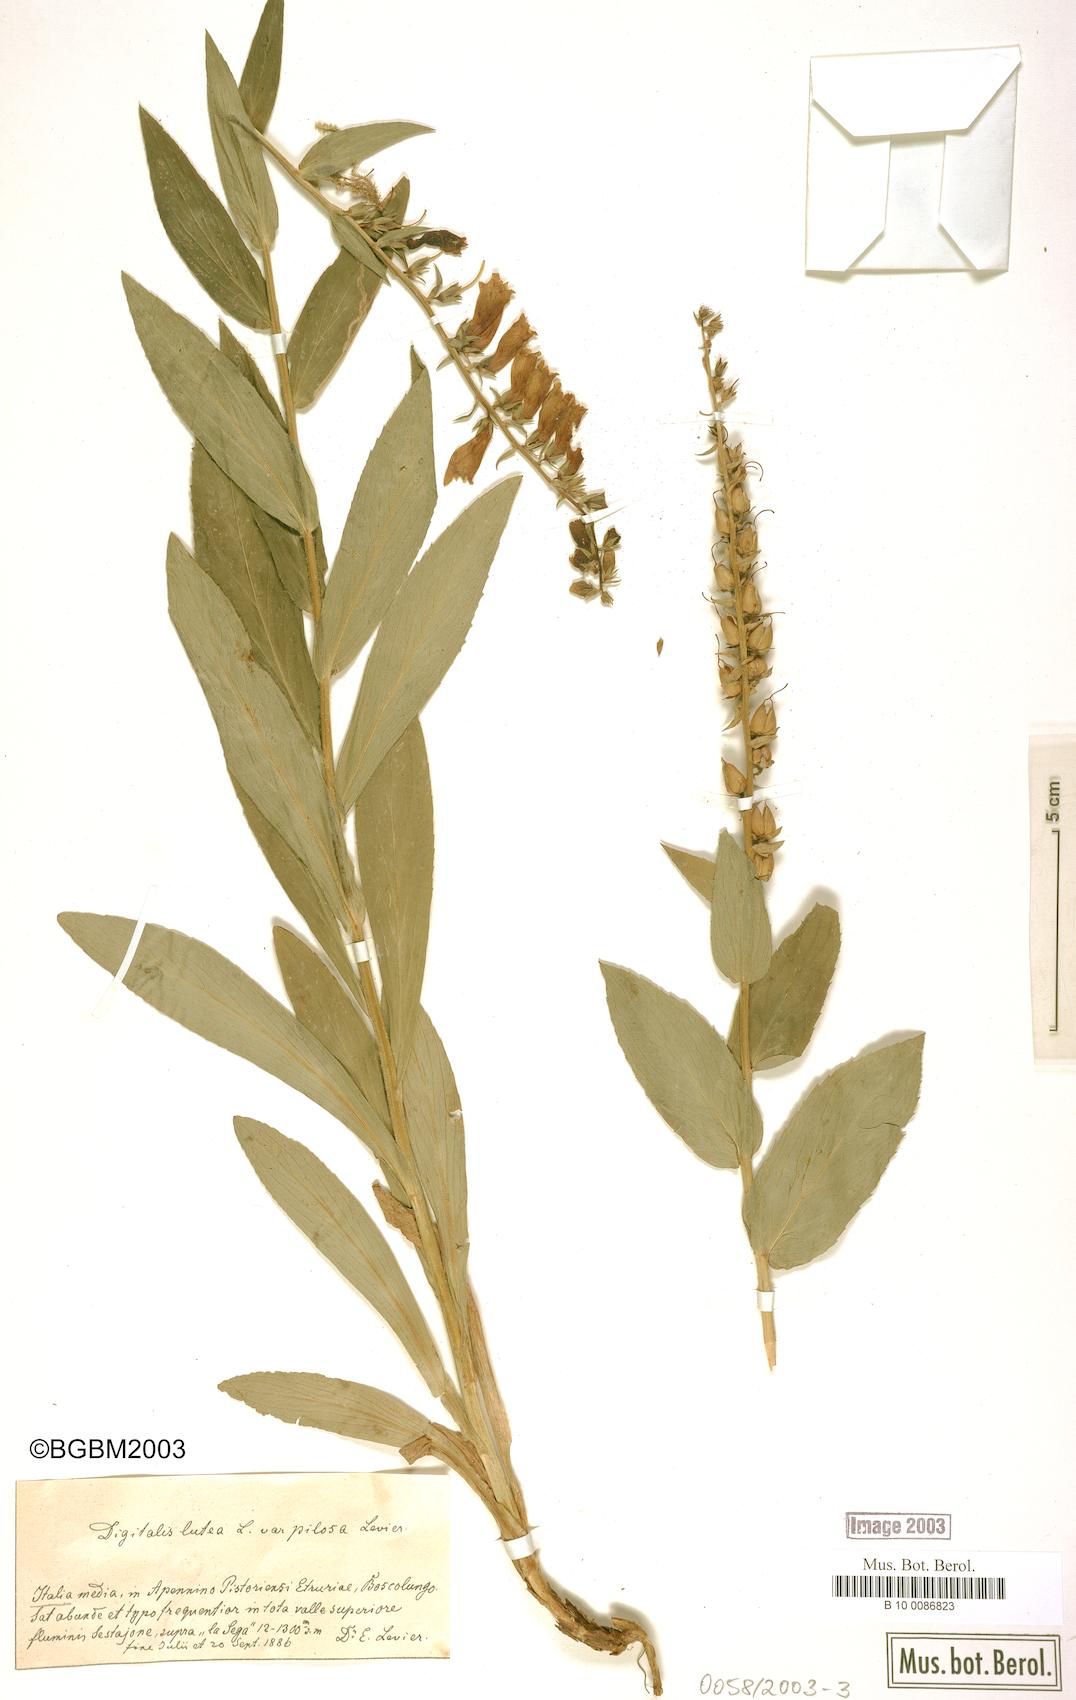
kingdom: Plantae
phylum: Tracheophyta
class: Magnoliopsida
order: Lamiales
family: Plantaginaceae
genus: Digitalis
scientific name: Digitalis lutea
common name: Straw foxglove
